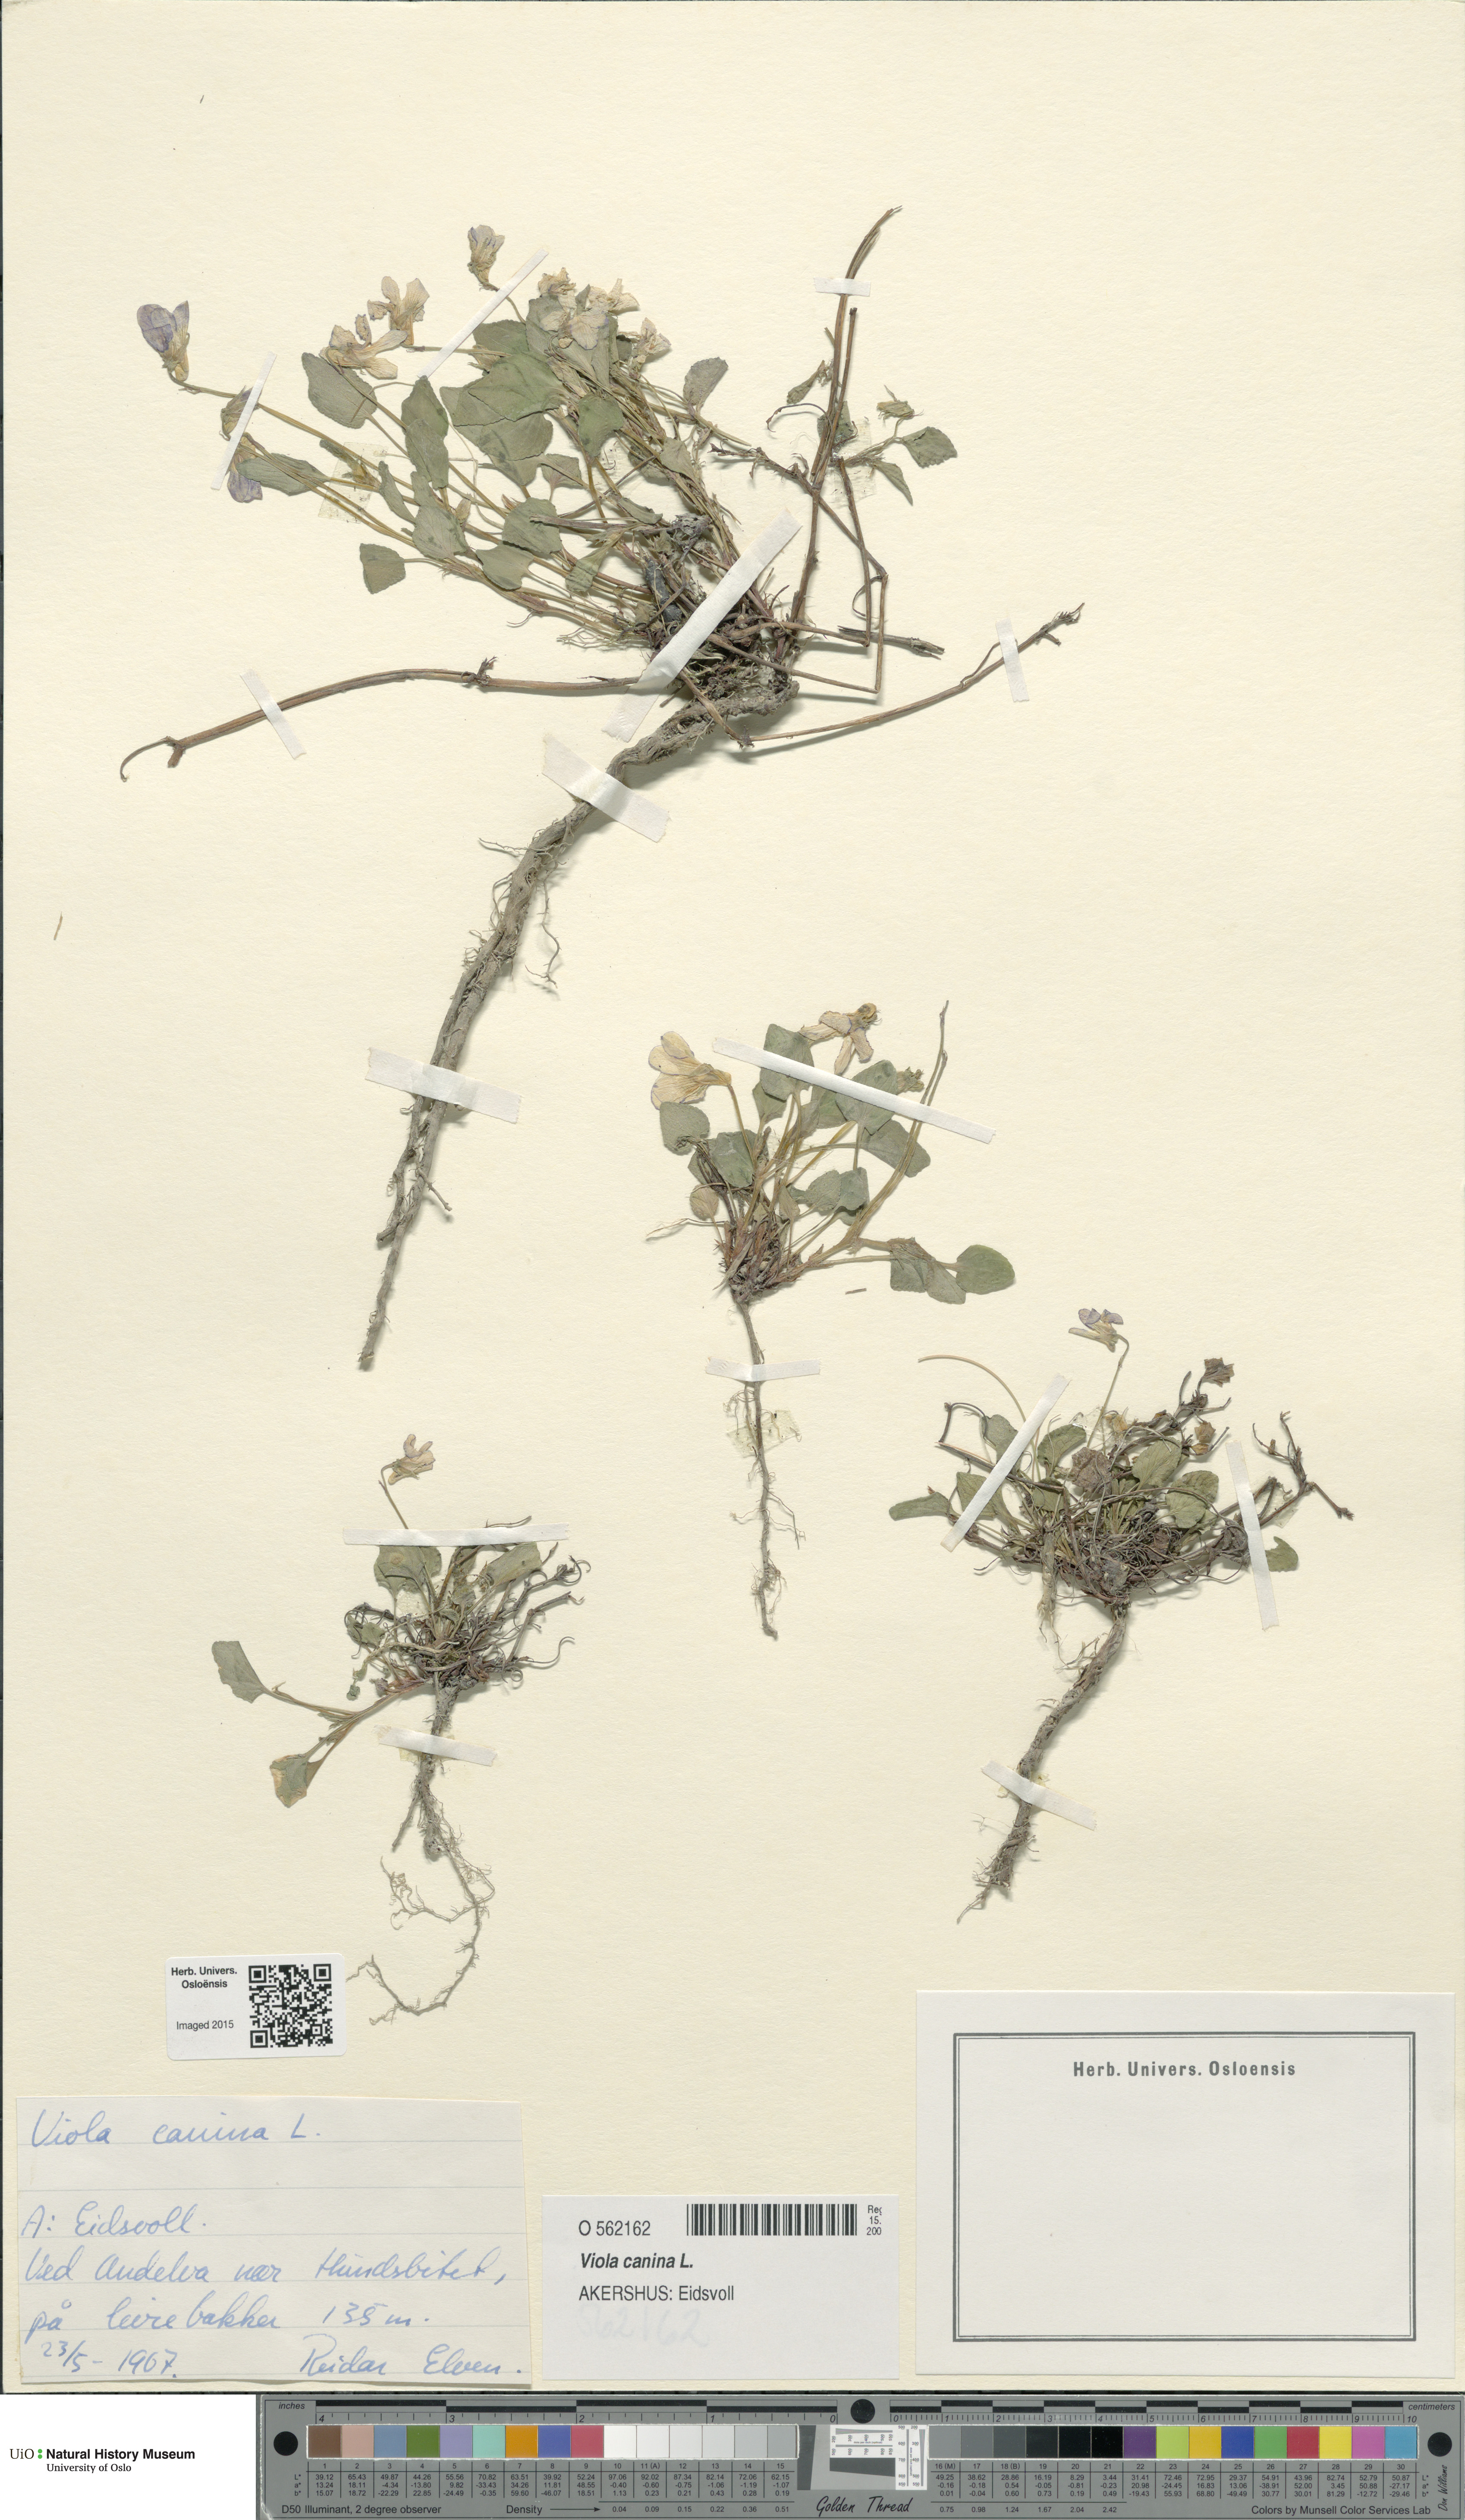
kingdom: Plantae
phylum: Tracheophyta
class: Magnoliopsida
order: Malpighiales
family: Violaceae
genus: Viola
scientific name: Viola canina
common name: Heath dog-violet
